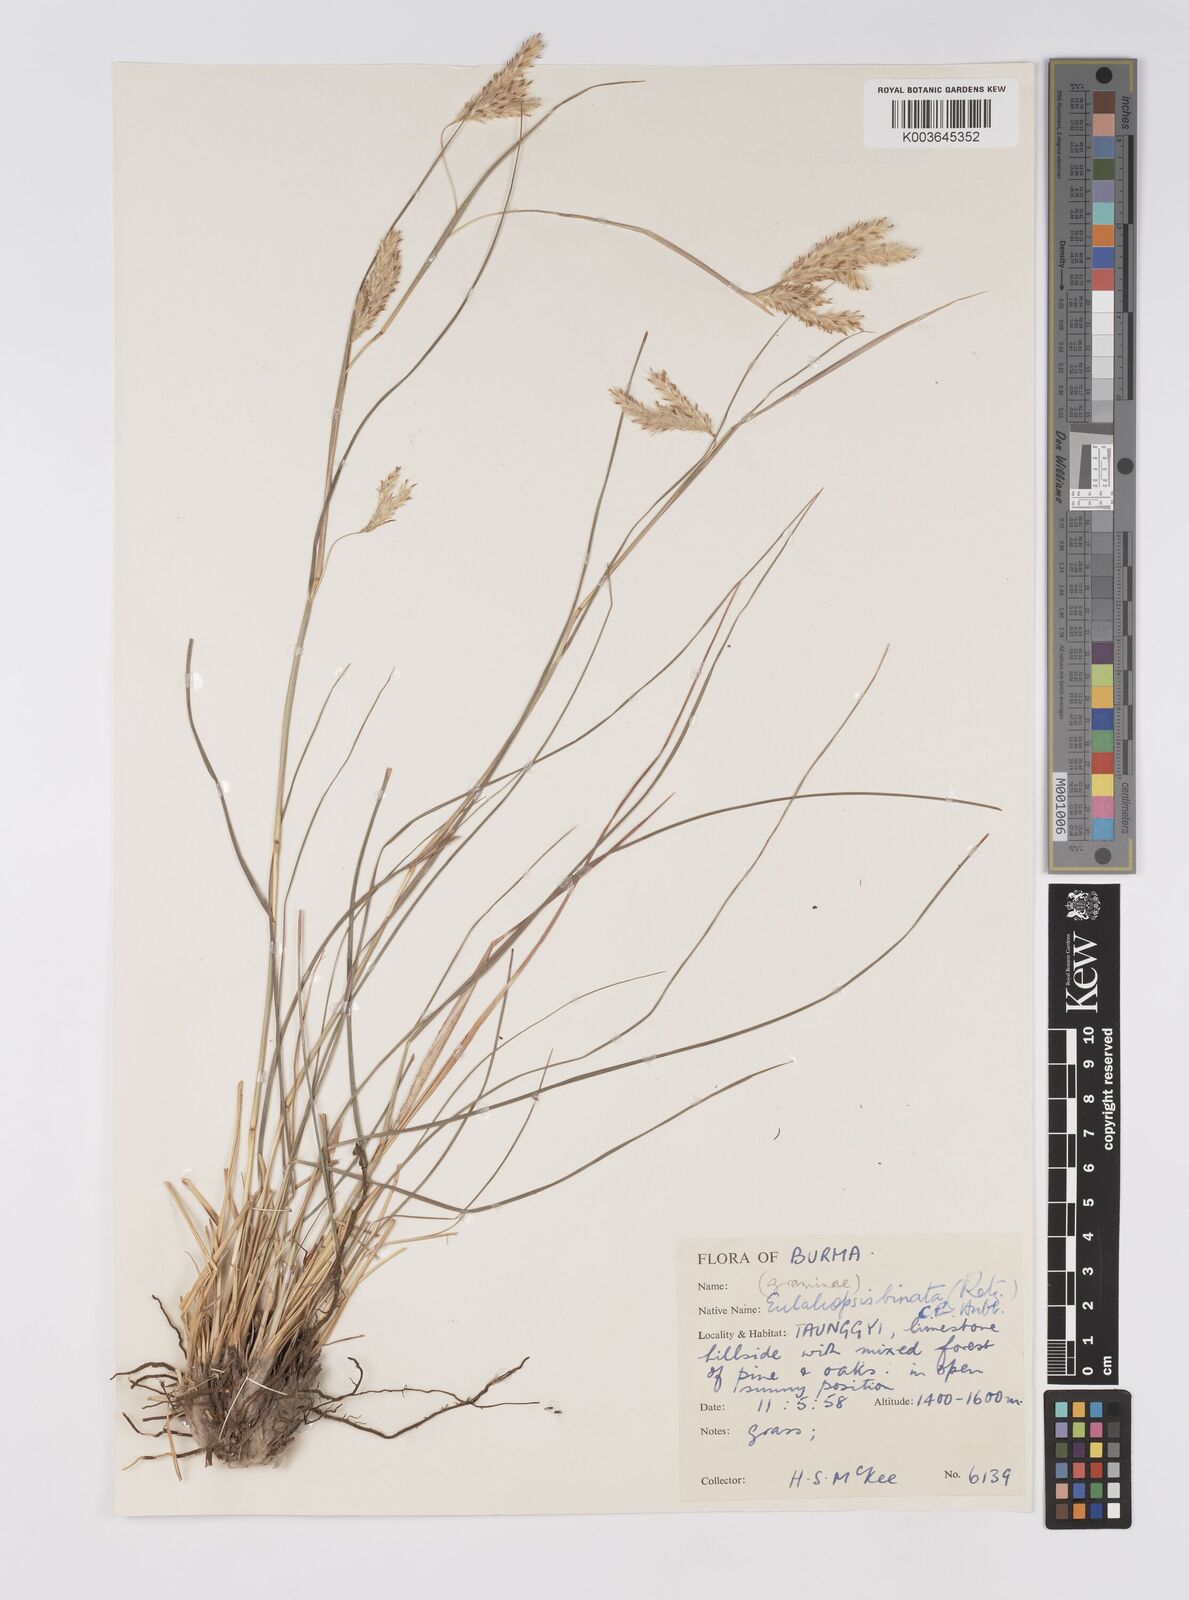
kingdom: Plantae
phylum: Tracheophyta
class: Liliopsida
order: Poales
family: Poaceae
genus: Eulaliopsis
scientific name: Eulaliopsis binata
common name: Baib grass
